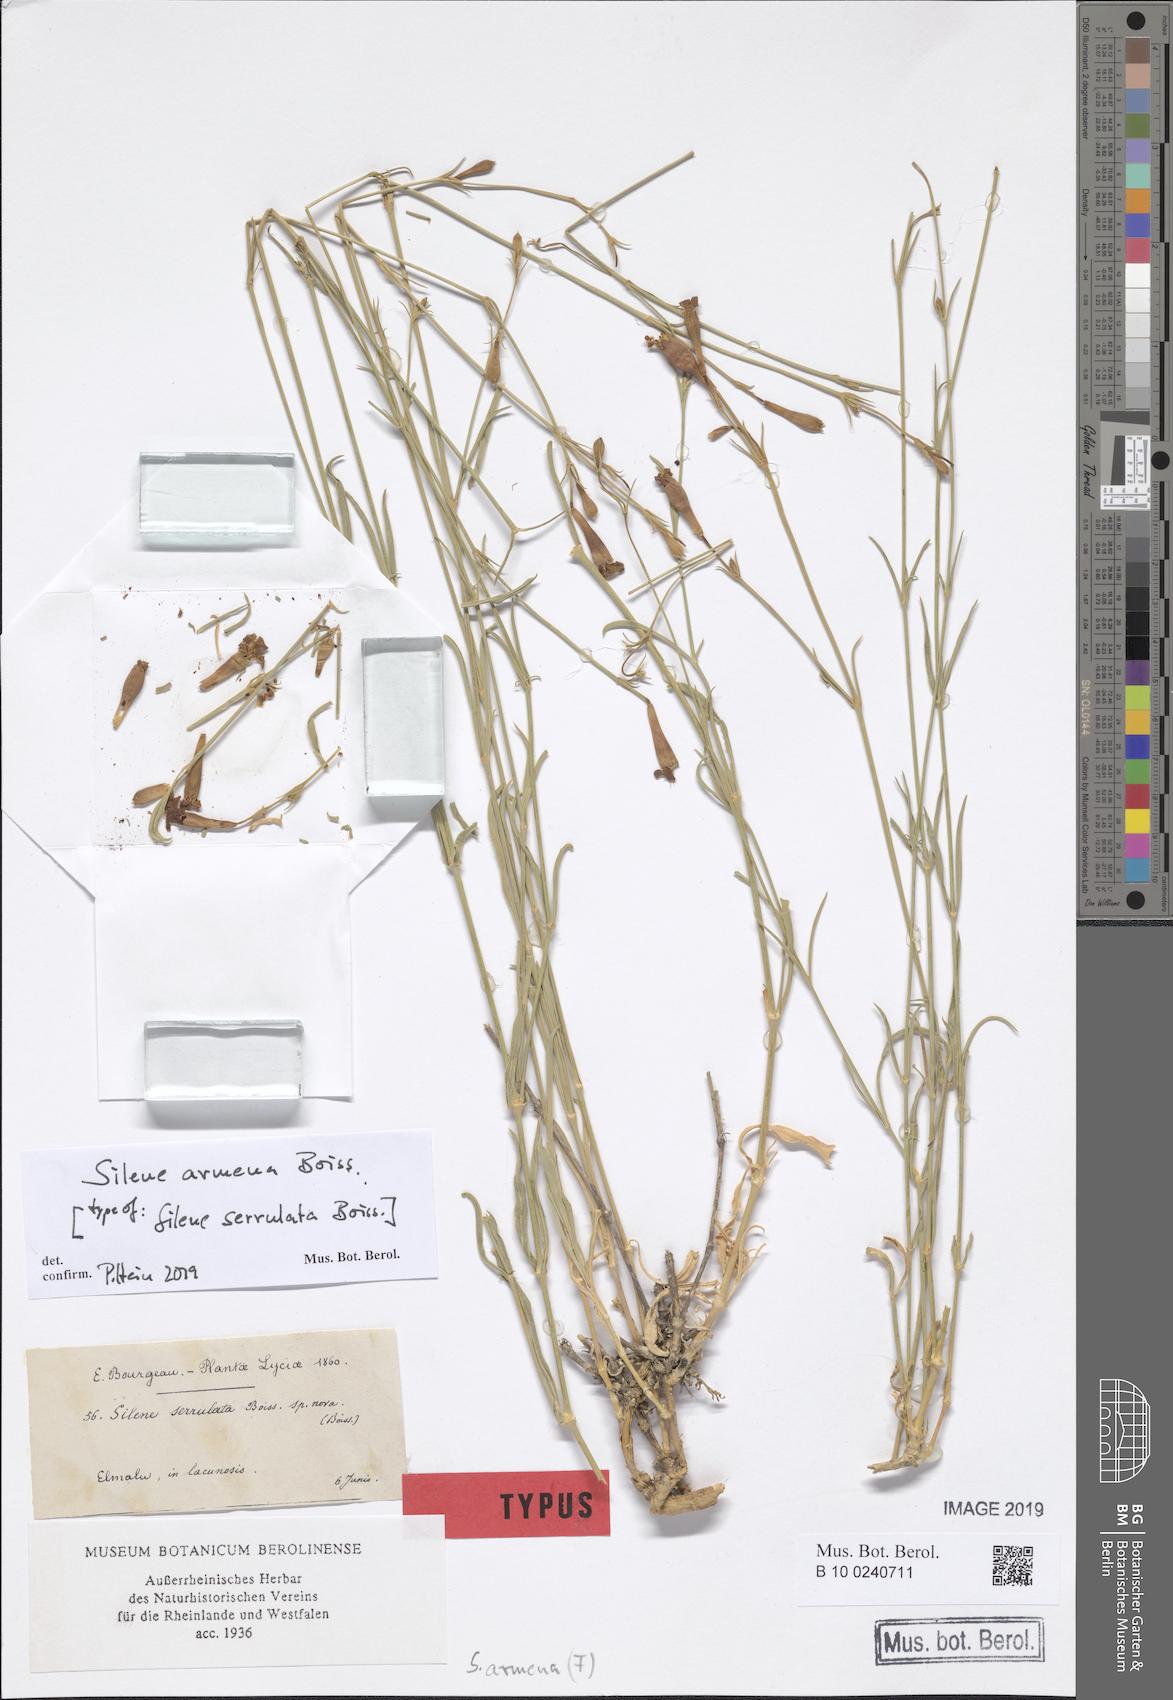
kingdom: Plantae
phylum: Tracheophyta
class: Magnoliopsida
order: Caryophyllales
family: Caryophyllaceae
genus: Silene
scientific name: Silene armena
